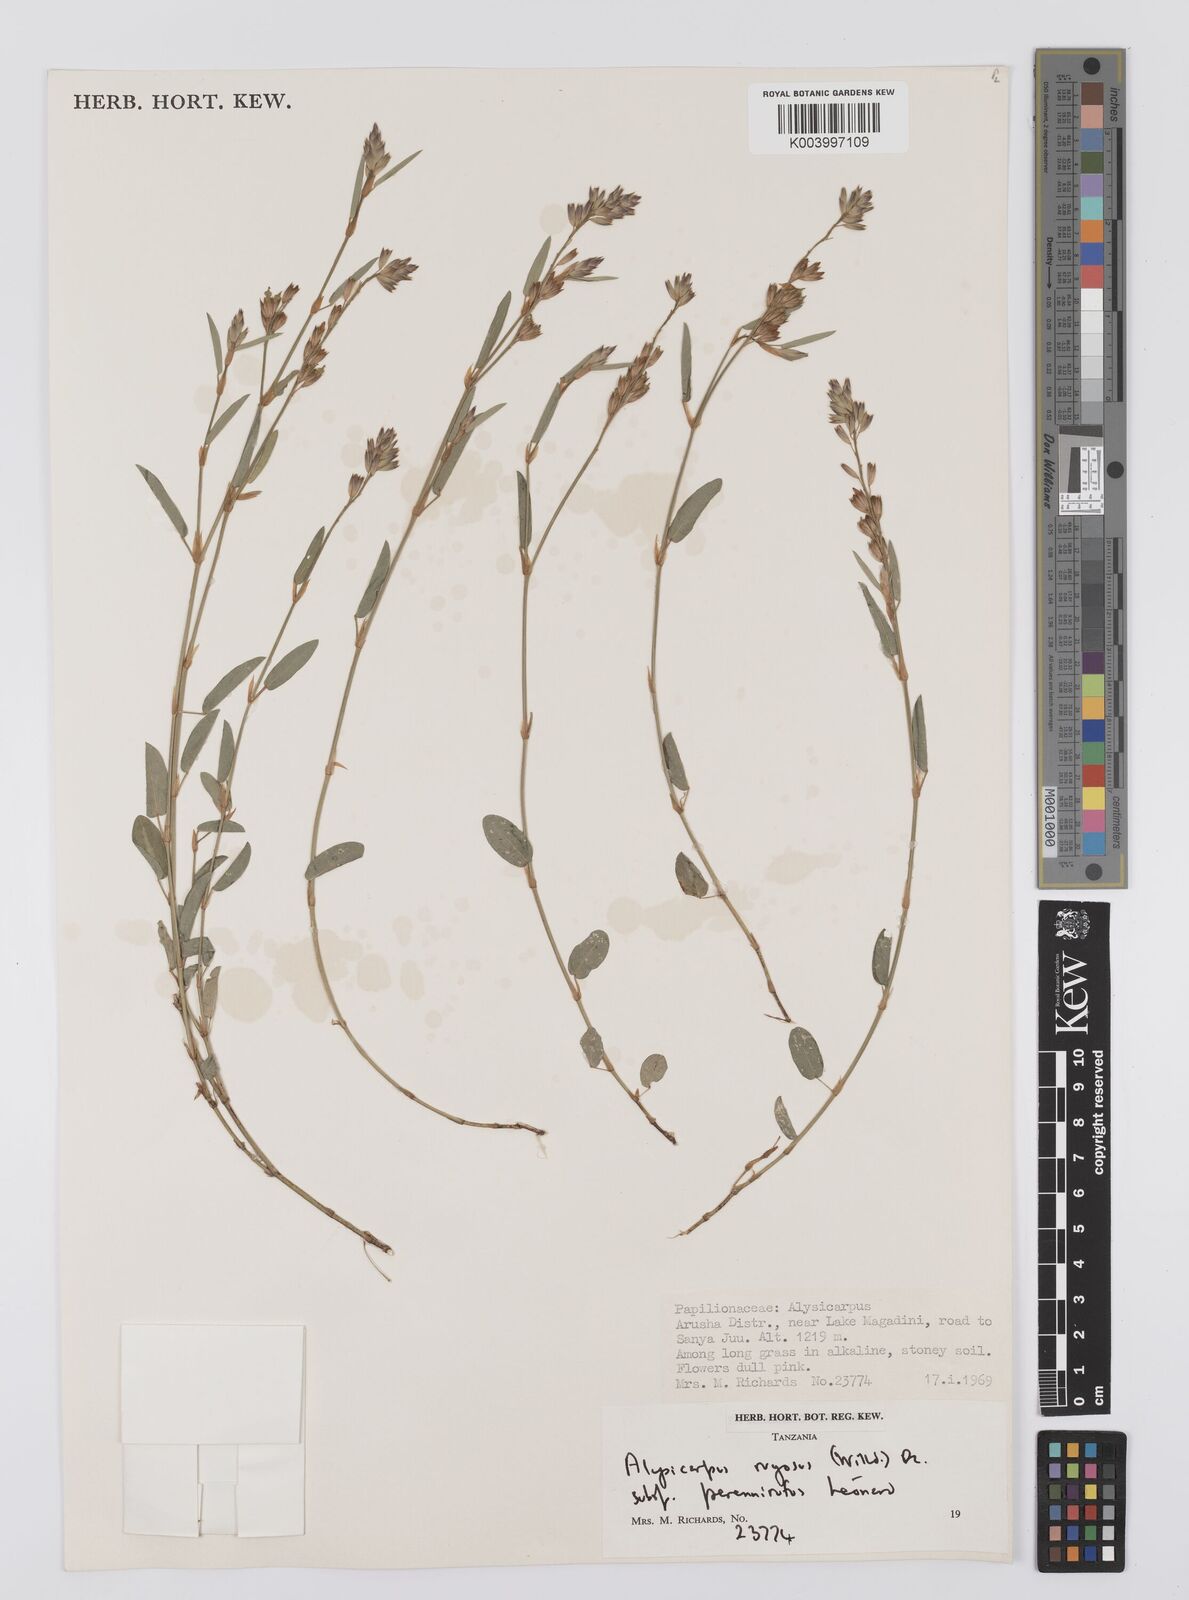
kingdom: Plantae
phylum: Tracheophyta
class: Magnoliopsida
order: Fabales
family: Fabaceae
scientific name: Fabaceae
